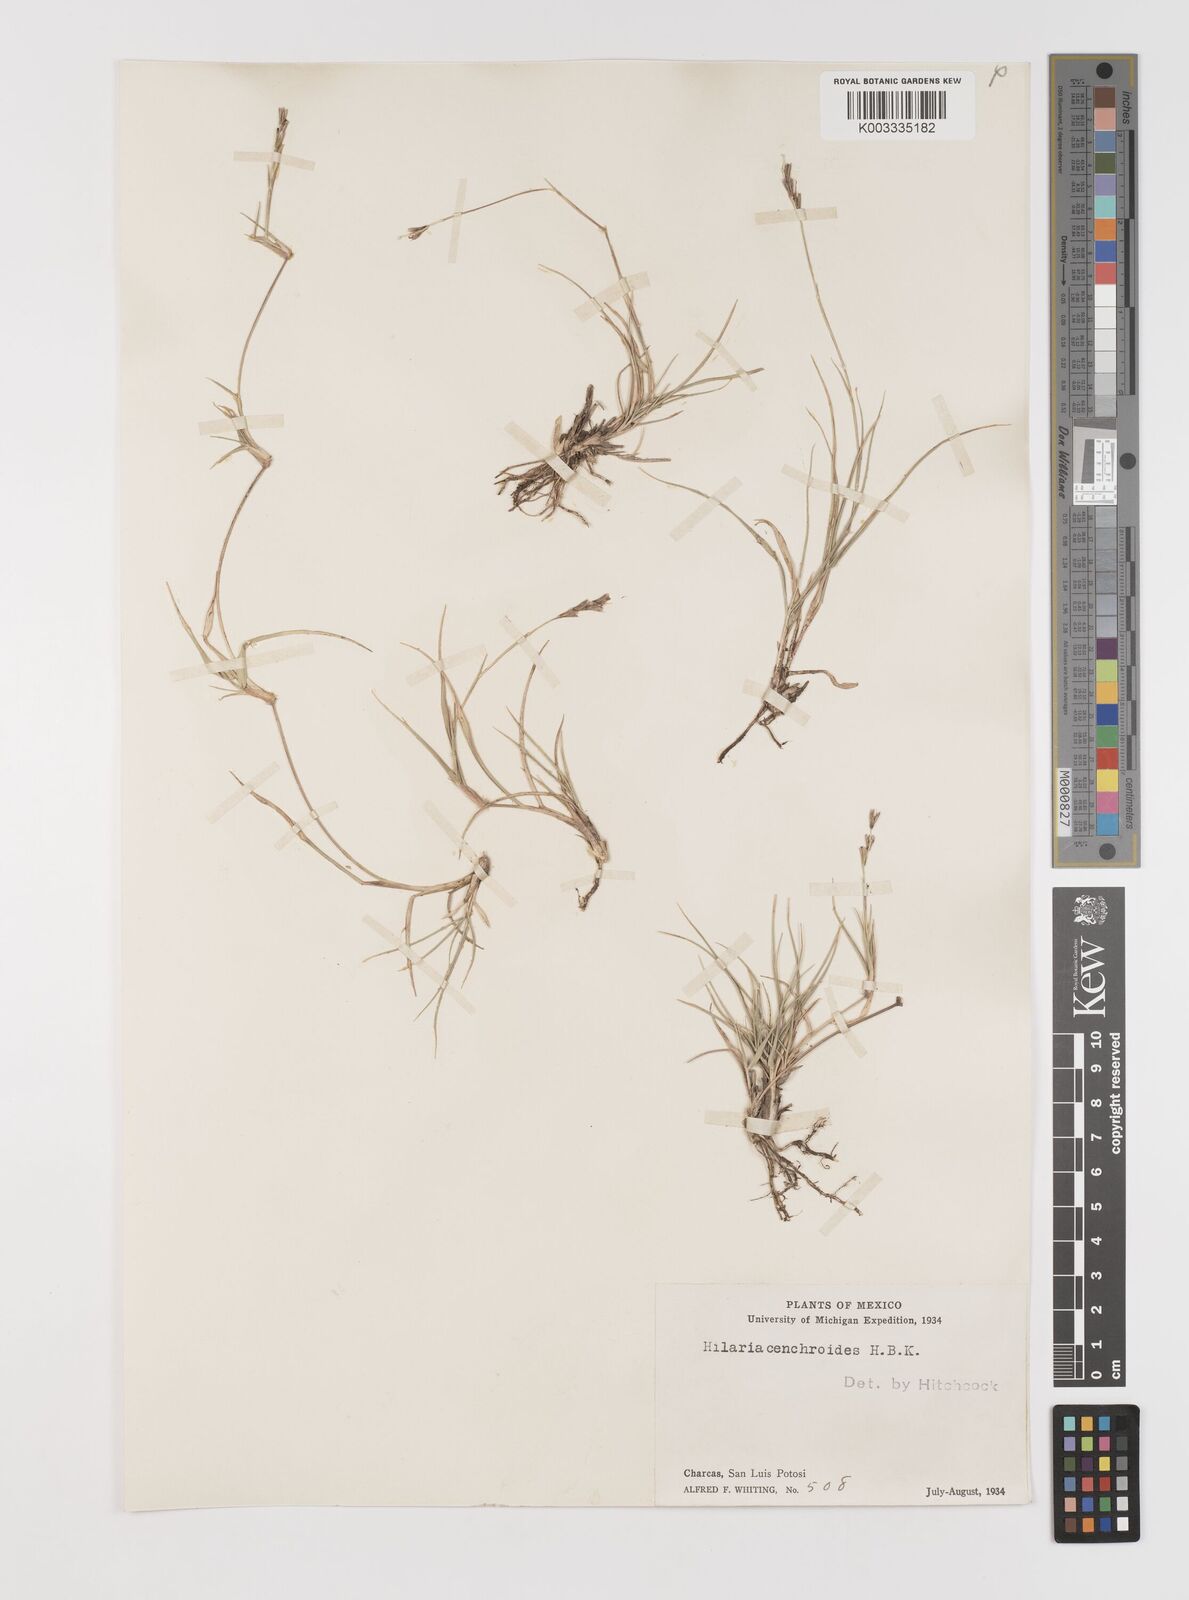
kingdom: Plantae
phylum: Tracheophyta
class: Liliopsida
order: Poales
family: Poaceae
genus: Hilaria
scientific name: Hilaria swallenii
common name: Swallen's curly-mesquite
